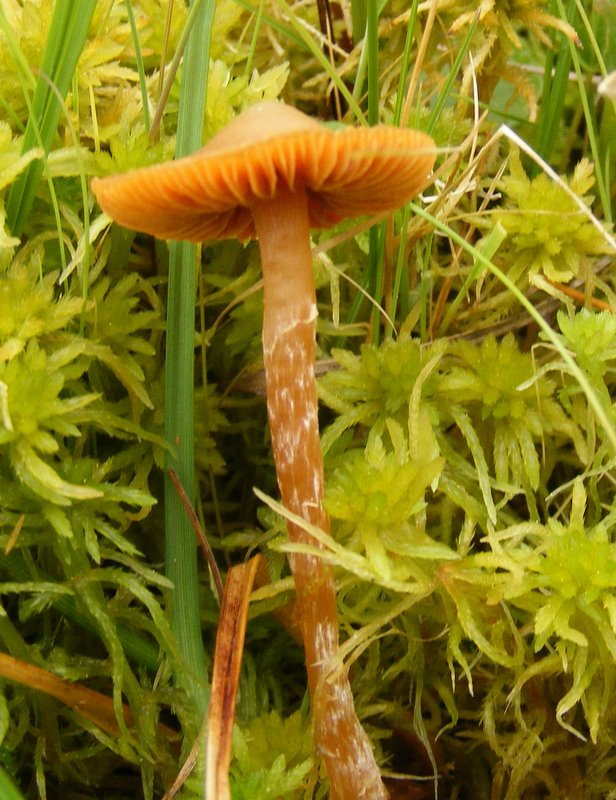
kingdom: Fungi
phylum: Basidiomycota
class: Agaricomycetes
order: Agaricales
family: Hymenogastraceae
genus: Galerina
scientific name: Galerina paludosa
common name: mose-hjelmhat
